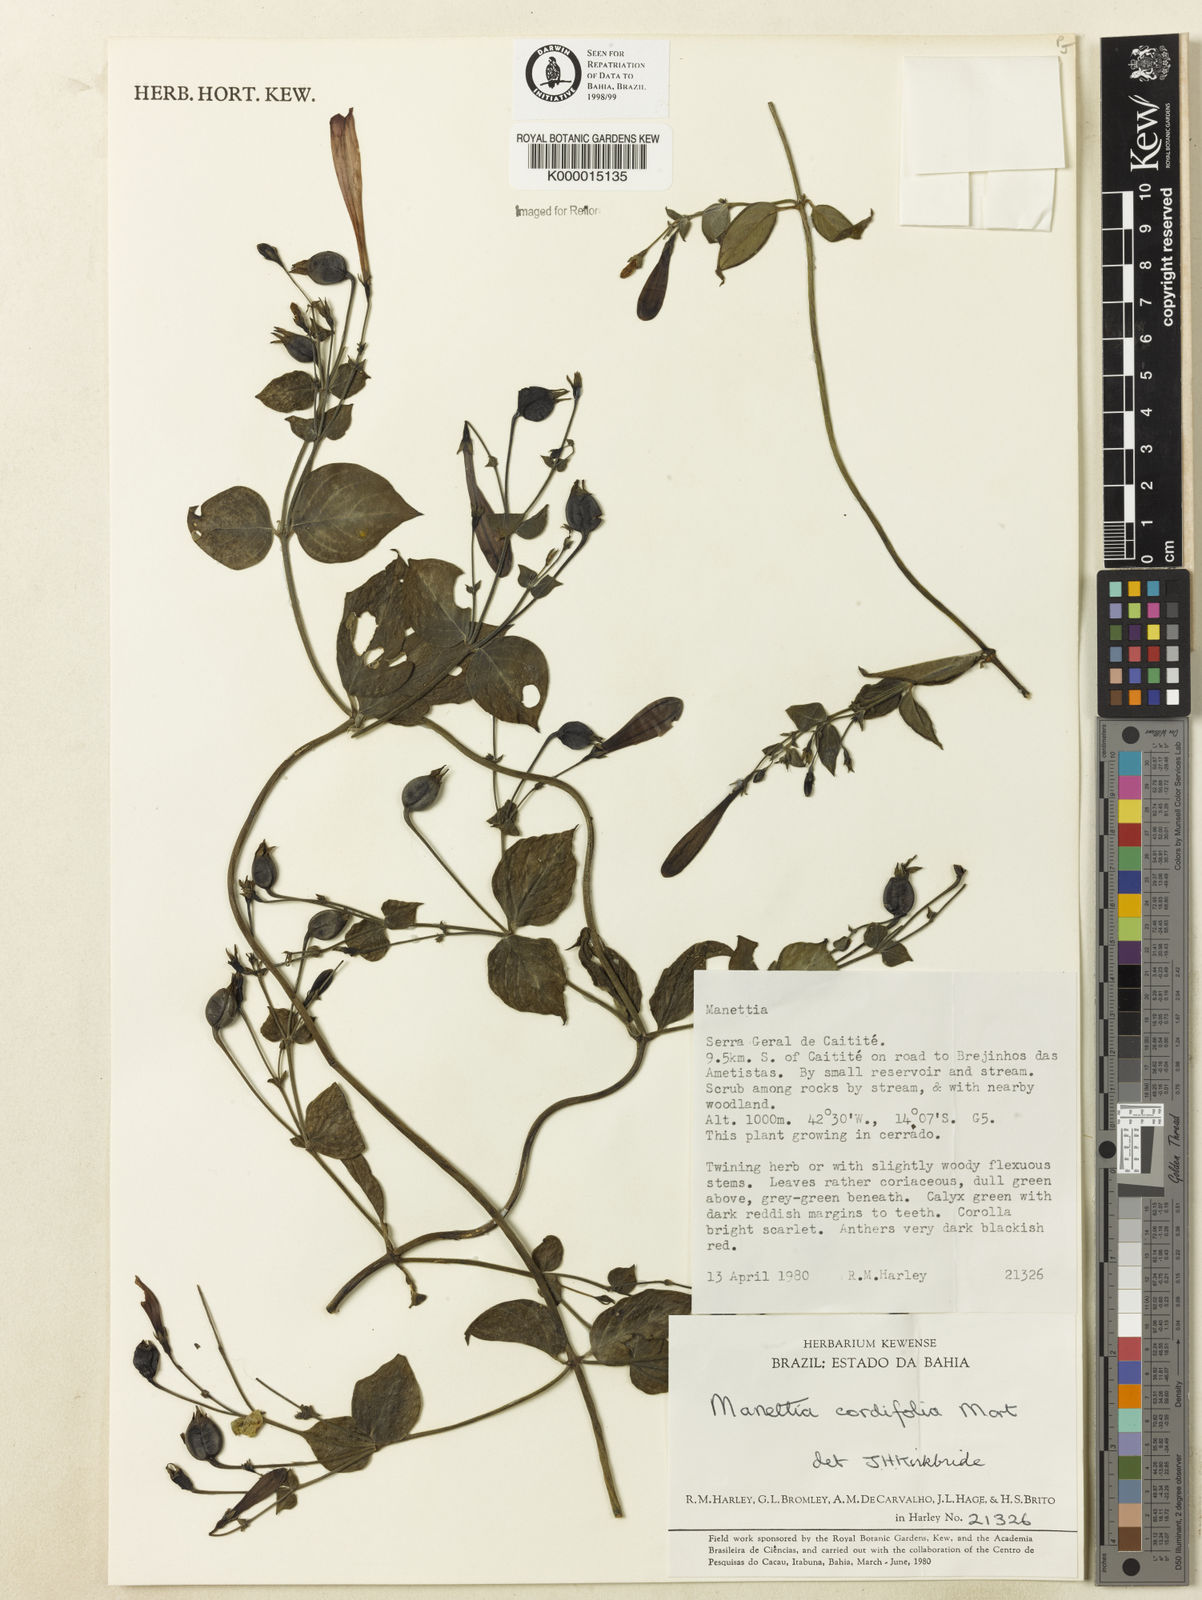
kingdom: Plantae
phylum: Tracheophyta
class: Magnoliopsida
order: Gentianales
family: Rubiaceae
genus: Manettia
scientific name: Manettia cordifolia
